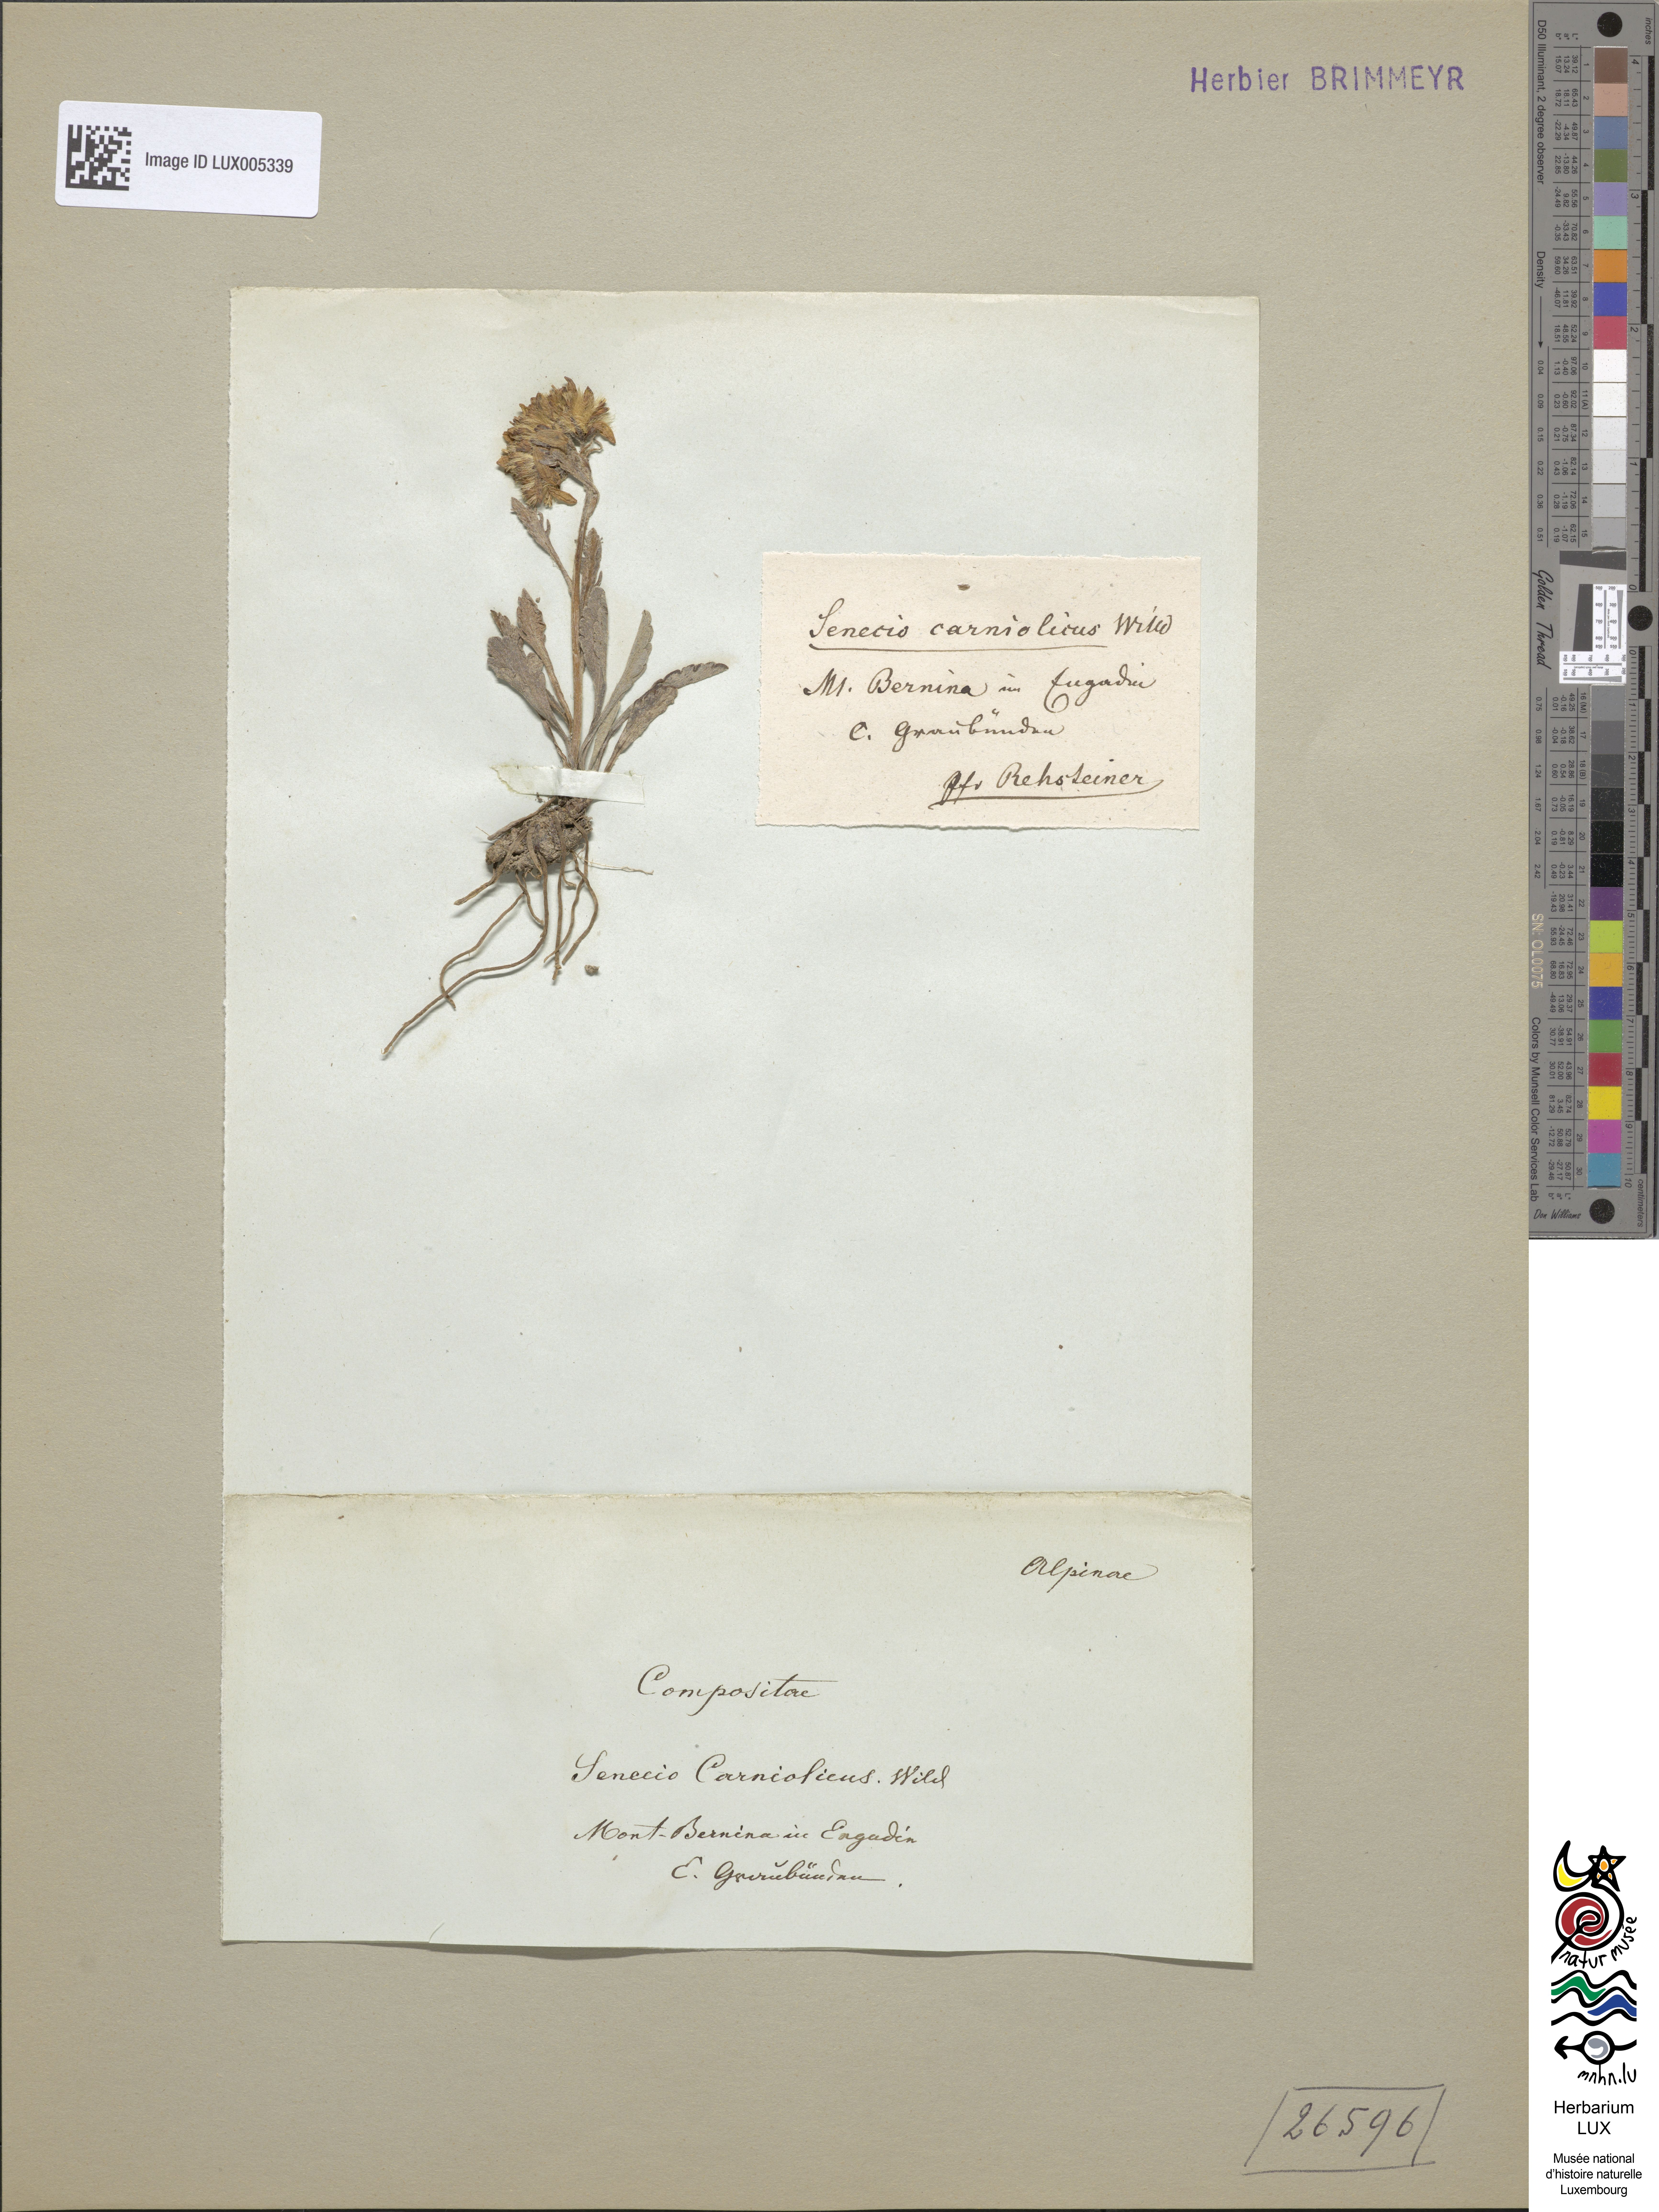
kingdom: Plantae
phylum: Tracheophyta
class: Magnoliopsida
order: Asterales
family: Asteraceae
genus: Jacobaea
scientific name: Jacobaea carniolica
